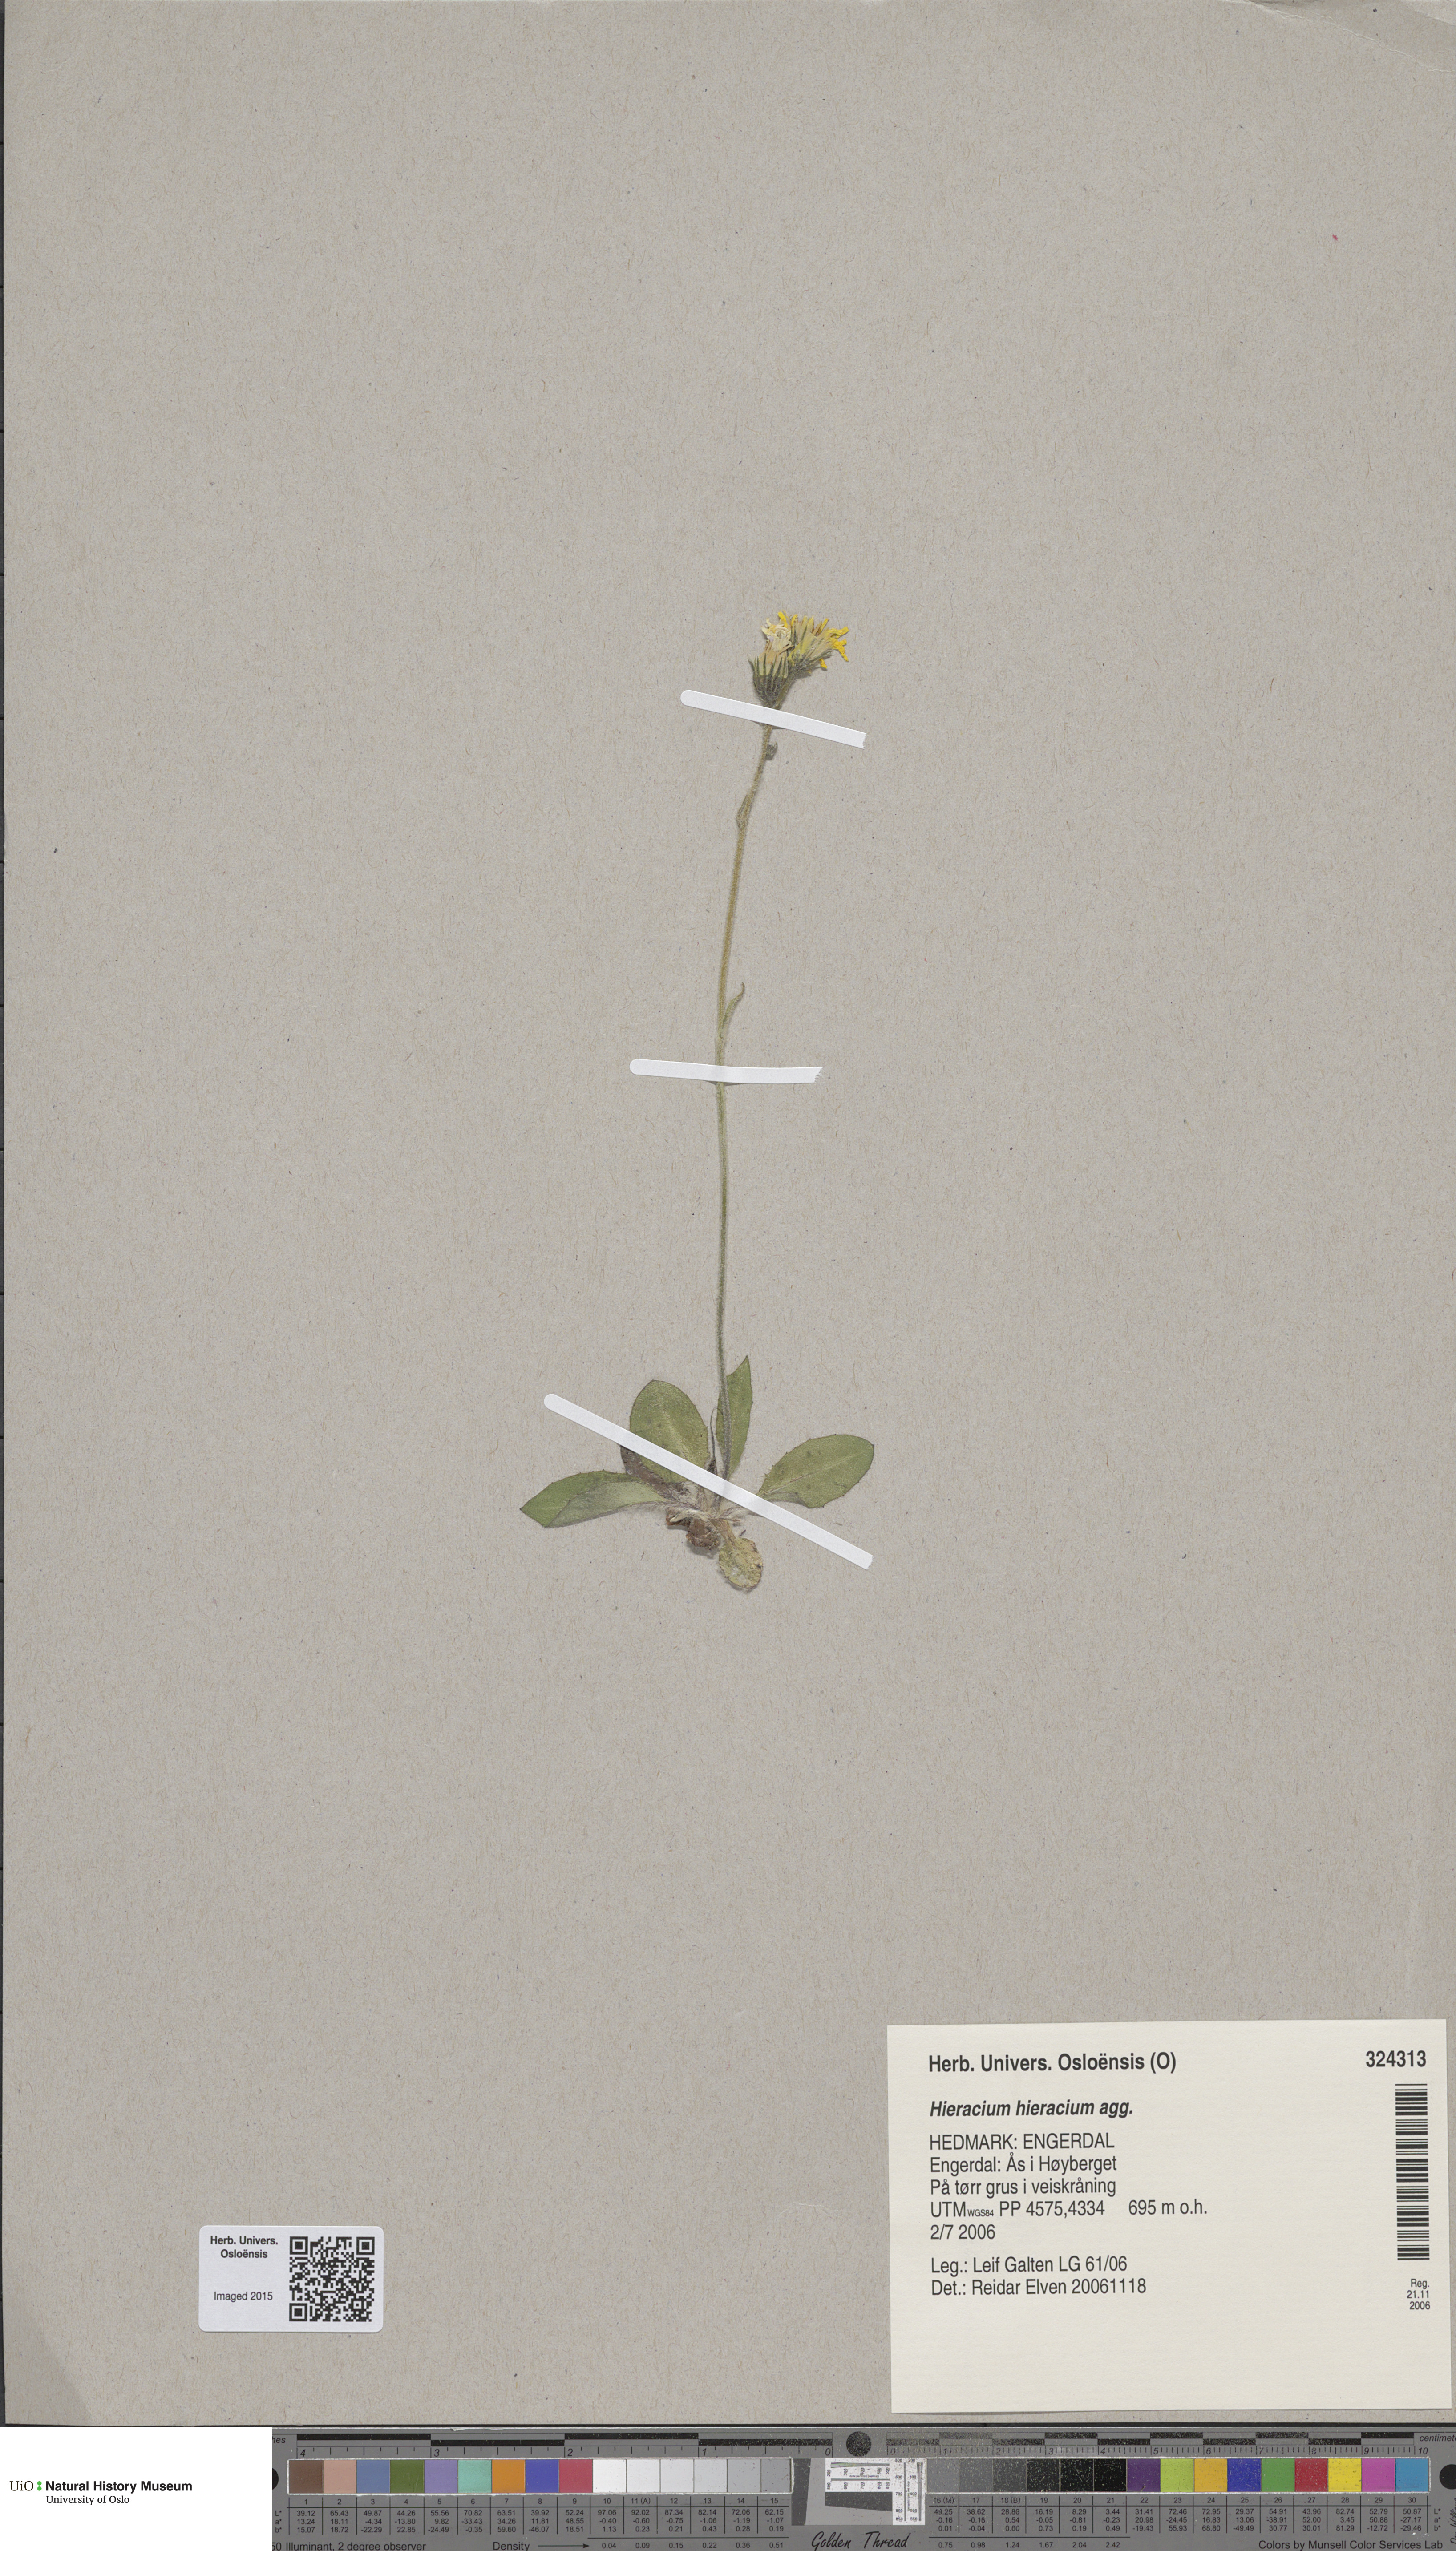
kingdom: Plantae
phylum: Tracheophyta
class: Magnoliopsida
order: Asterales
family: Asteraceae
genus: Hieracium
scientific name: Hieracium
